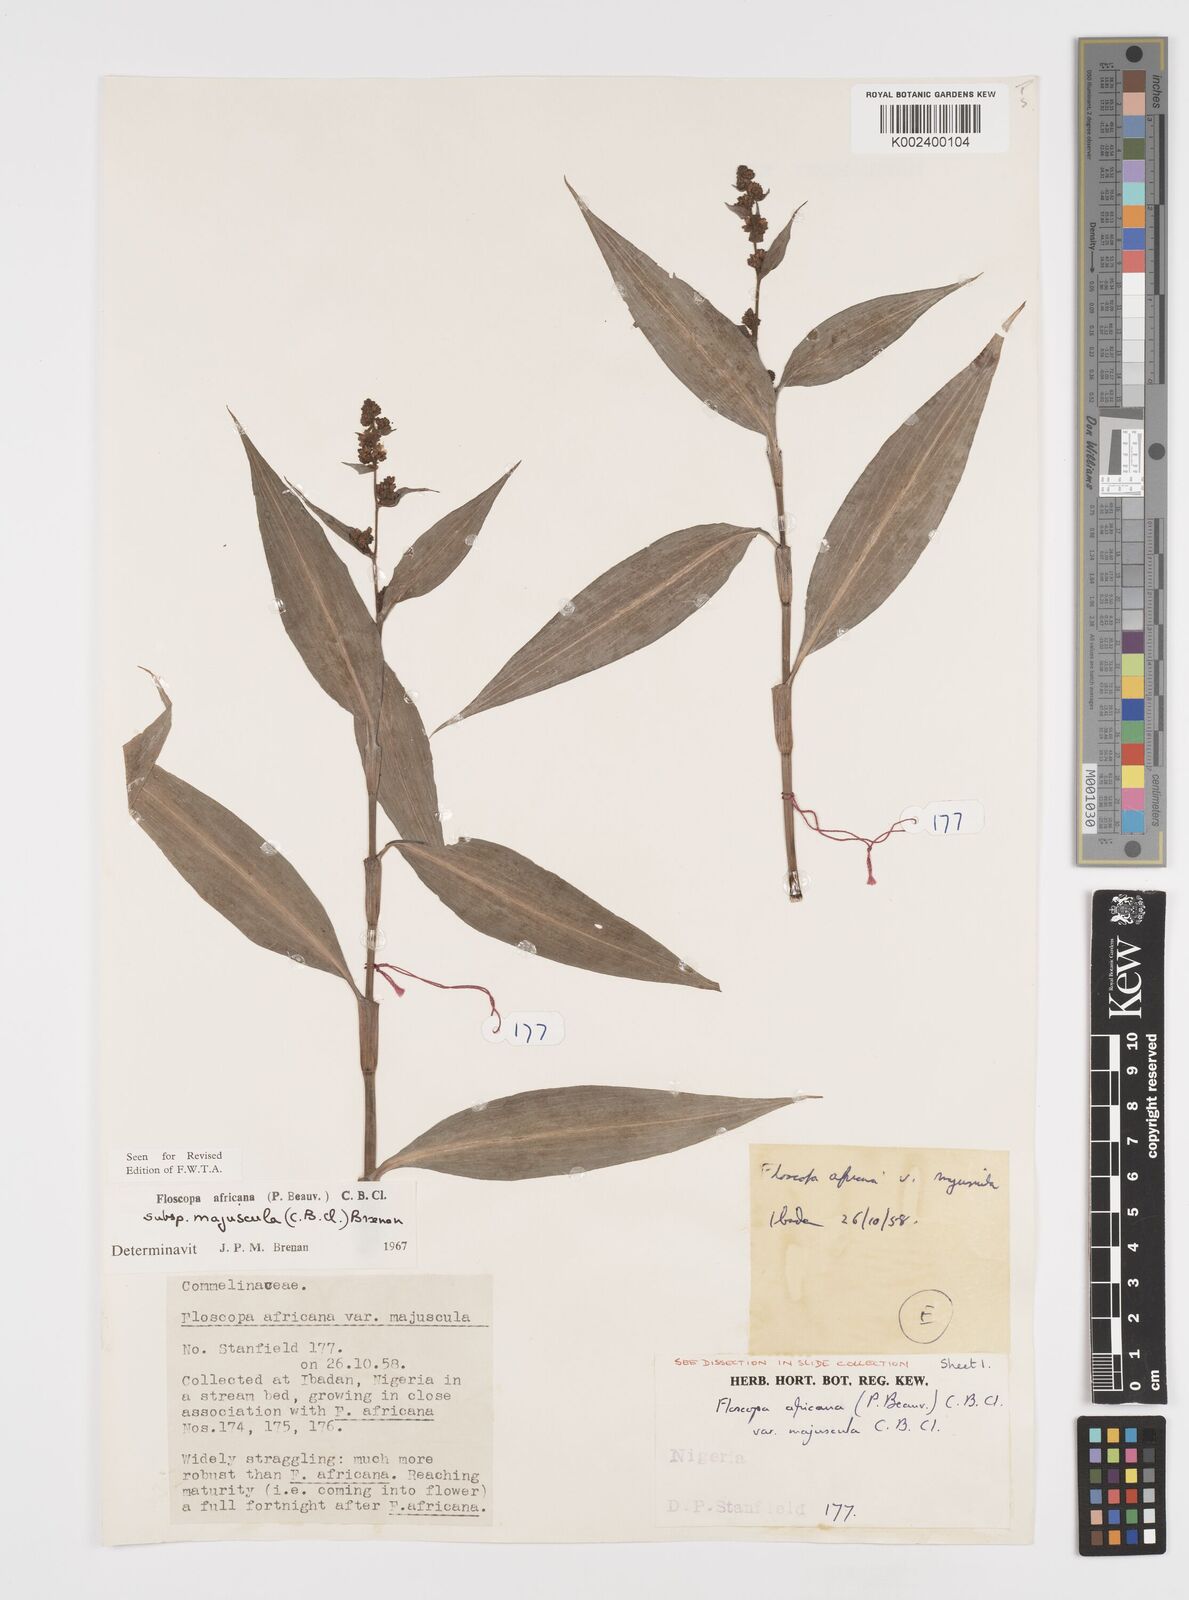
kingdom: Plantae
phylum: Tracheophyta
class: Liliopsida
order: Commelinales
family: Commelinaceae
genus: Floscopa
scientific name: Floscopa africana
